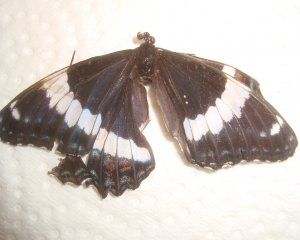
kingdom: Animalia
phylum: Arthropoda
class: Insecta
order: Lepidoptera
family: Nymphalidae
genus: Limenitis
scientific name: Limenitis arthemis
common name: Red-spotted Admiral
